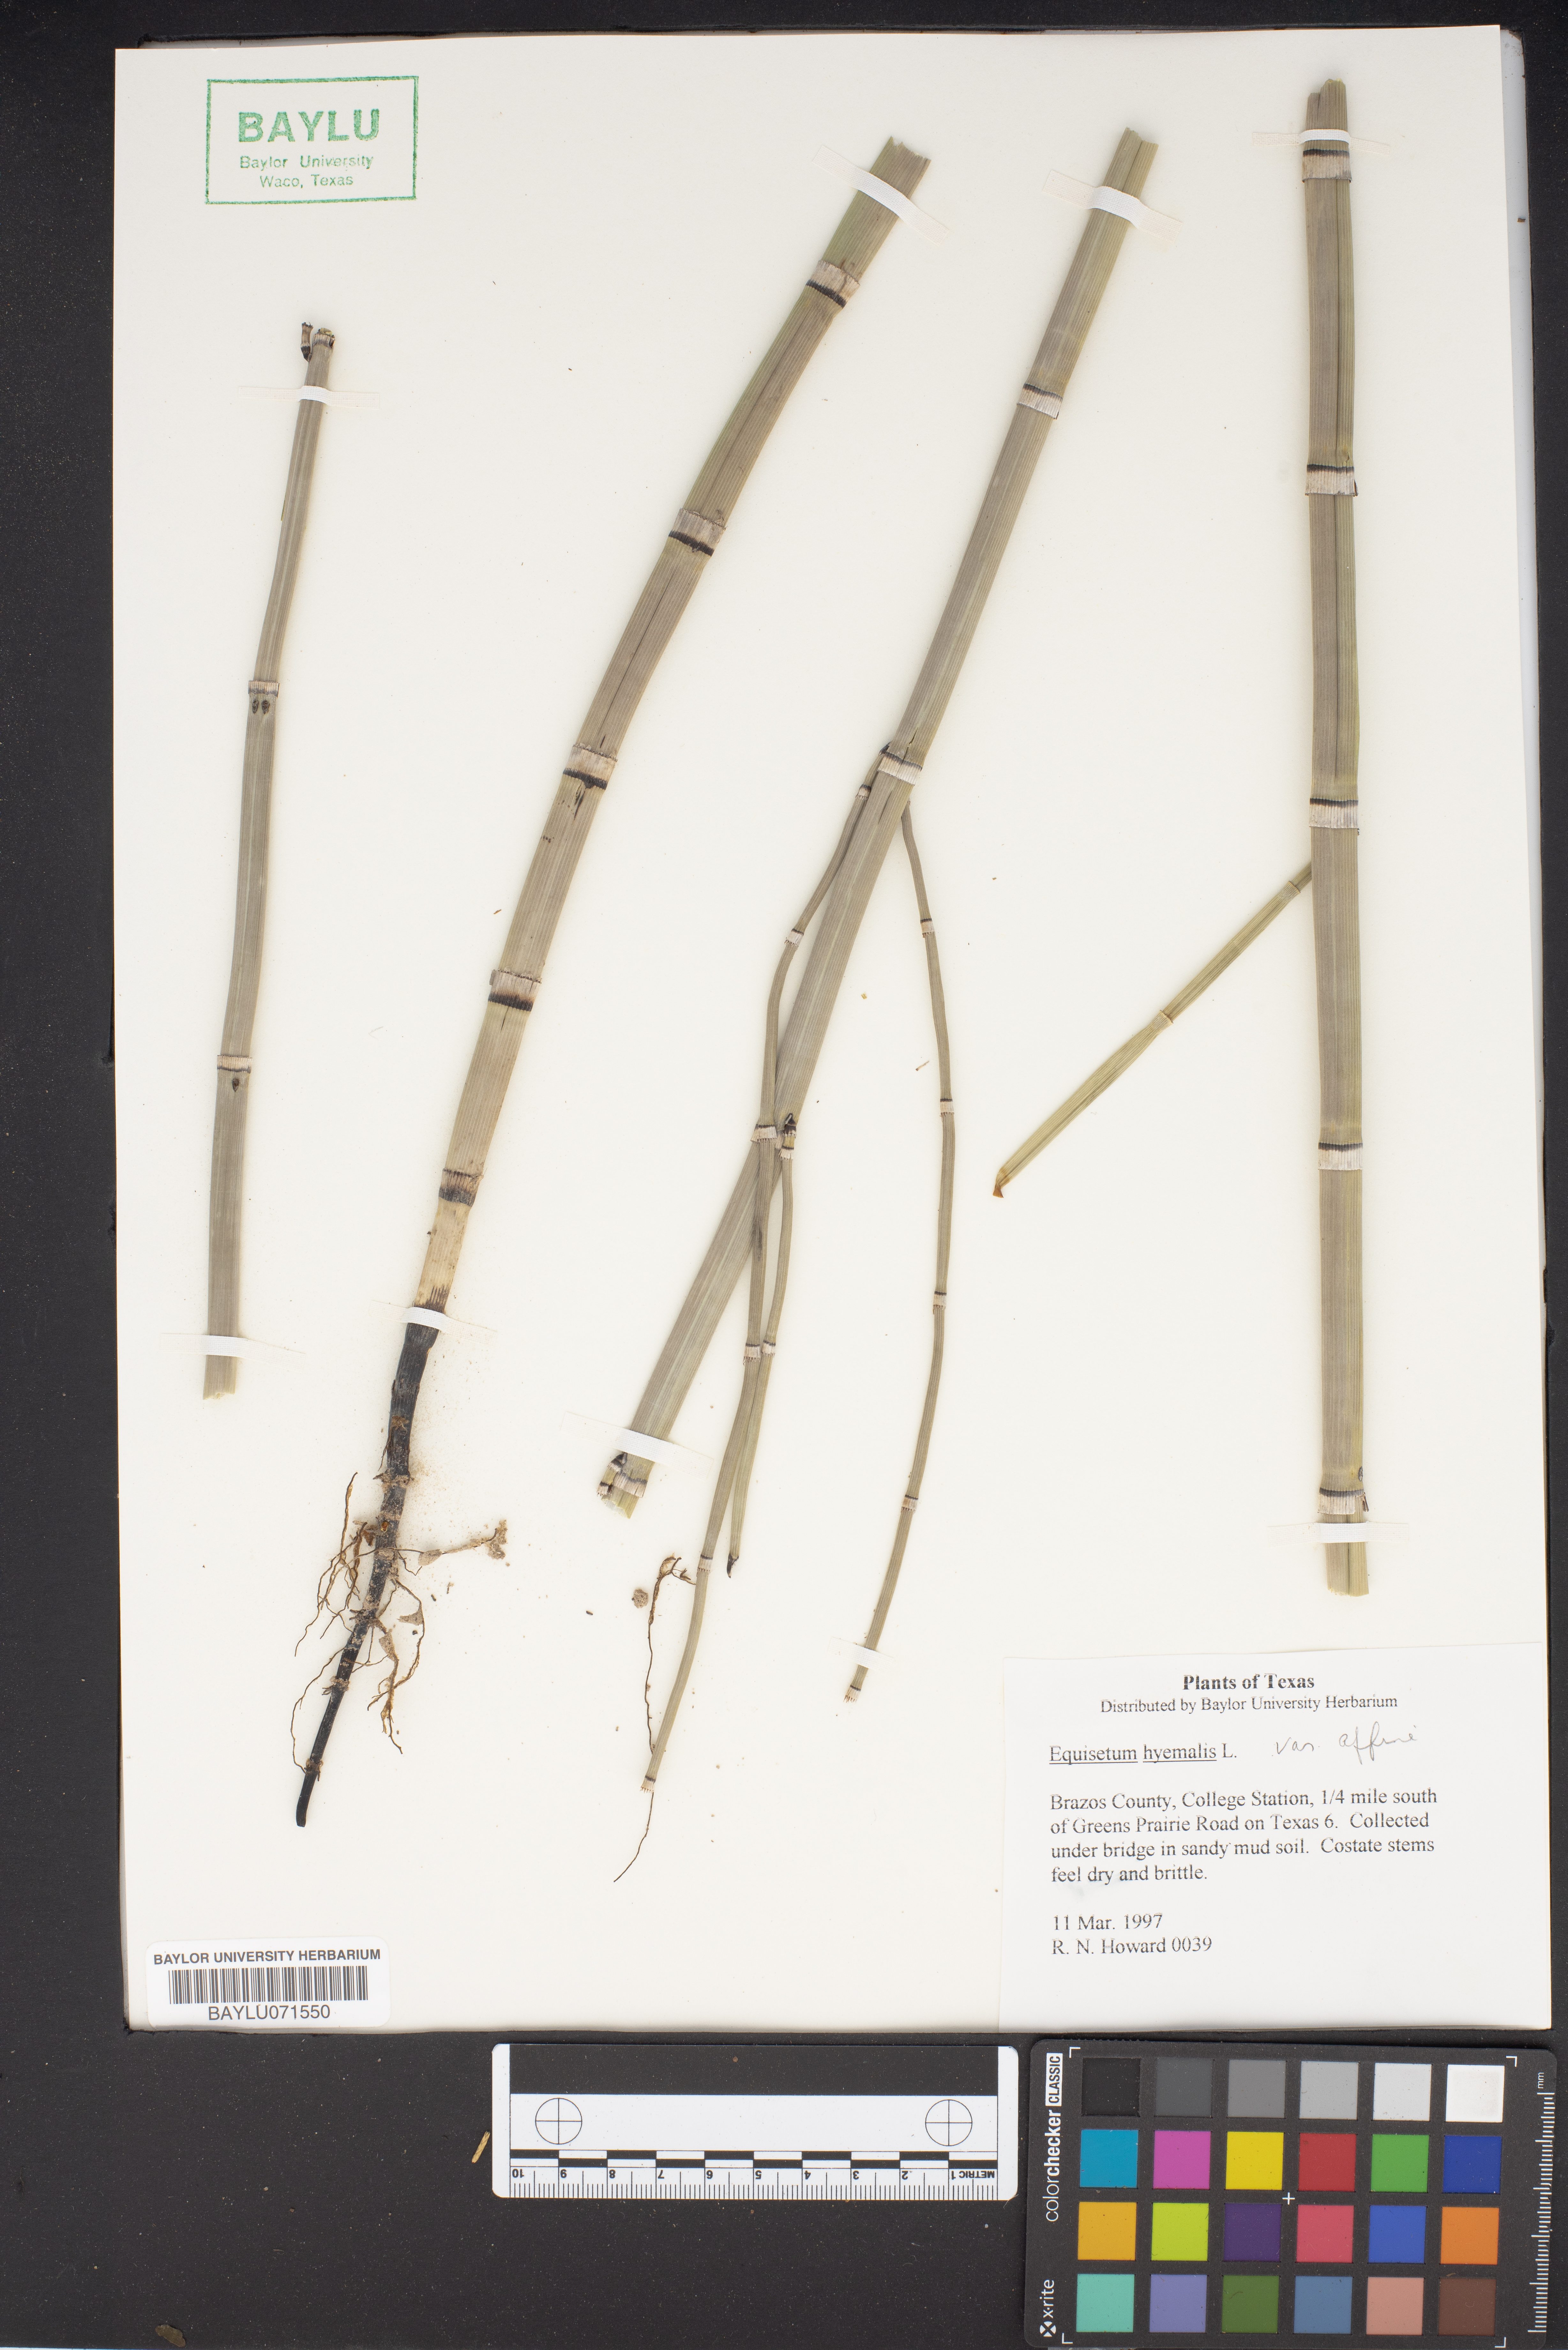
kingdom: Plantae
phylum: Tracheophyta
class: Polypodiopsida
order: Equisetales
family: Equisetaceae
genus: Equisetum
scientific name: Equisetum praealtum
